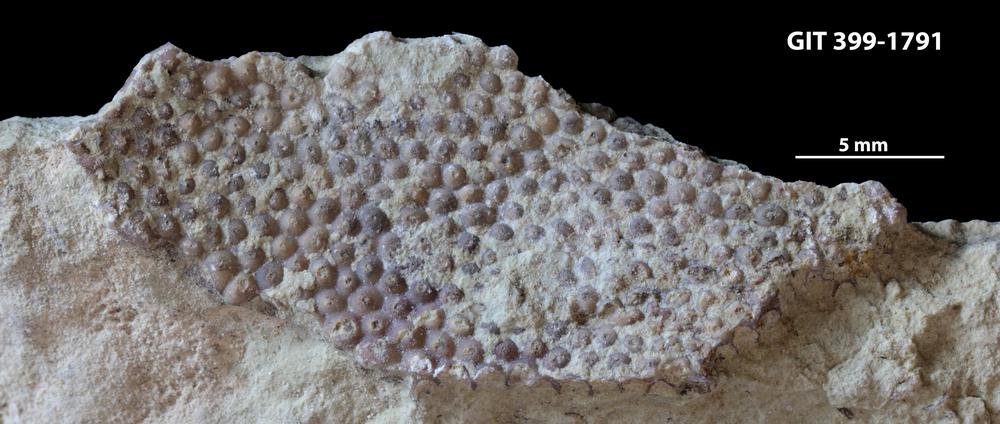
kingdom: Plantae
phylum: Chlorophyta
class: Ulvophyceae
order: Cyclocrinales
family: Cyclocrinaceae
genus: Mastopora
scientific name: Mastopora concava
